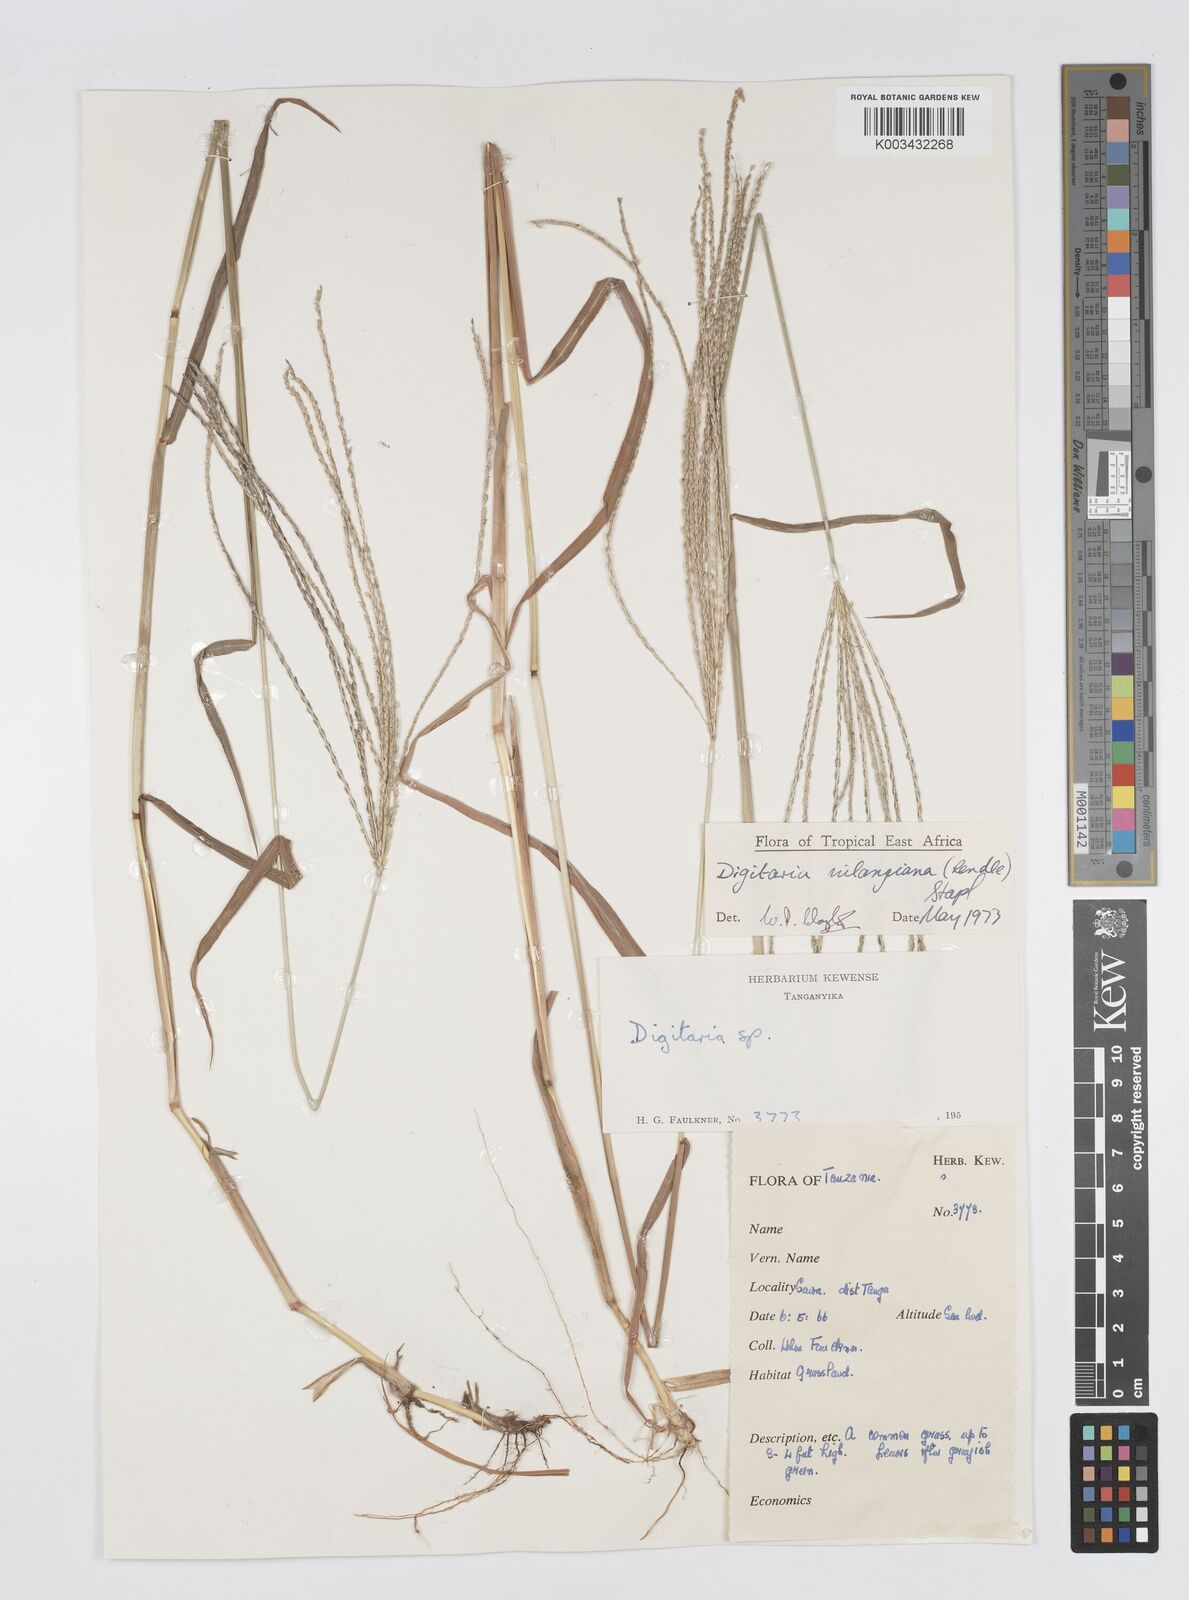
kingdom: Plantae
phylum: Tracheophyta
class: Liliopsida
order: Poales
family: Poaceae
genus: Digitaria
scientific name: Digitaria milanjiana
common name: Madagascar crabgrass
